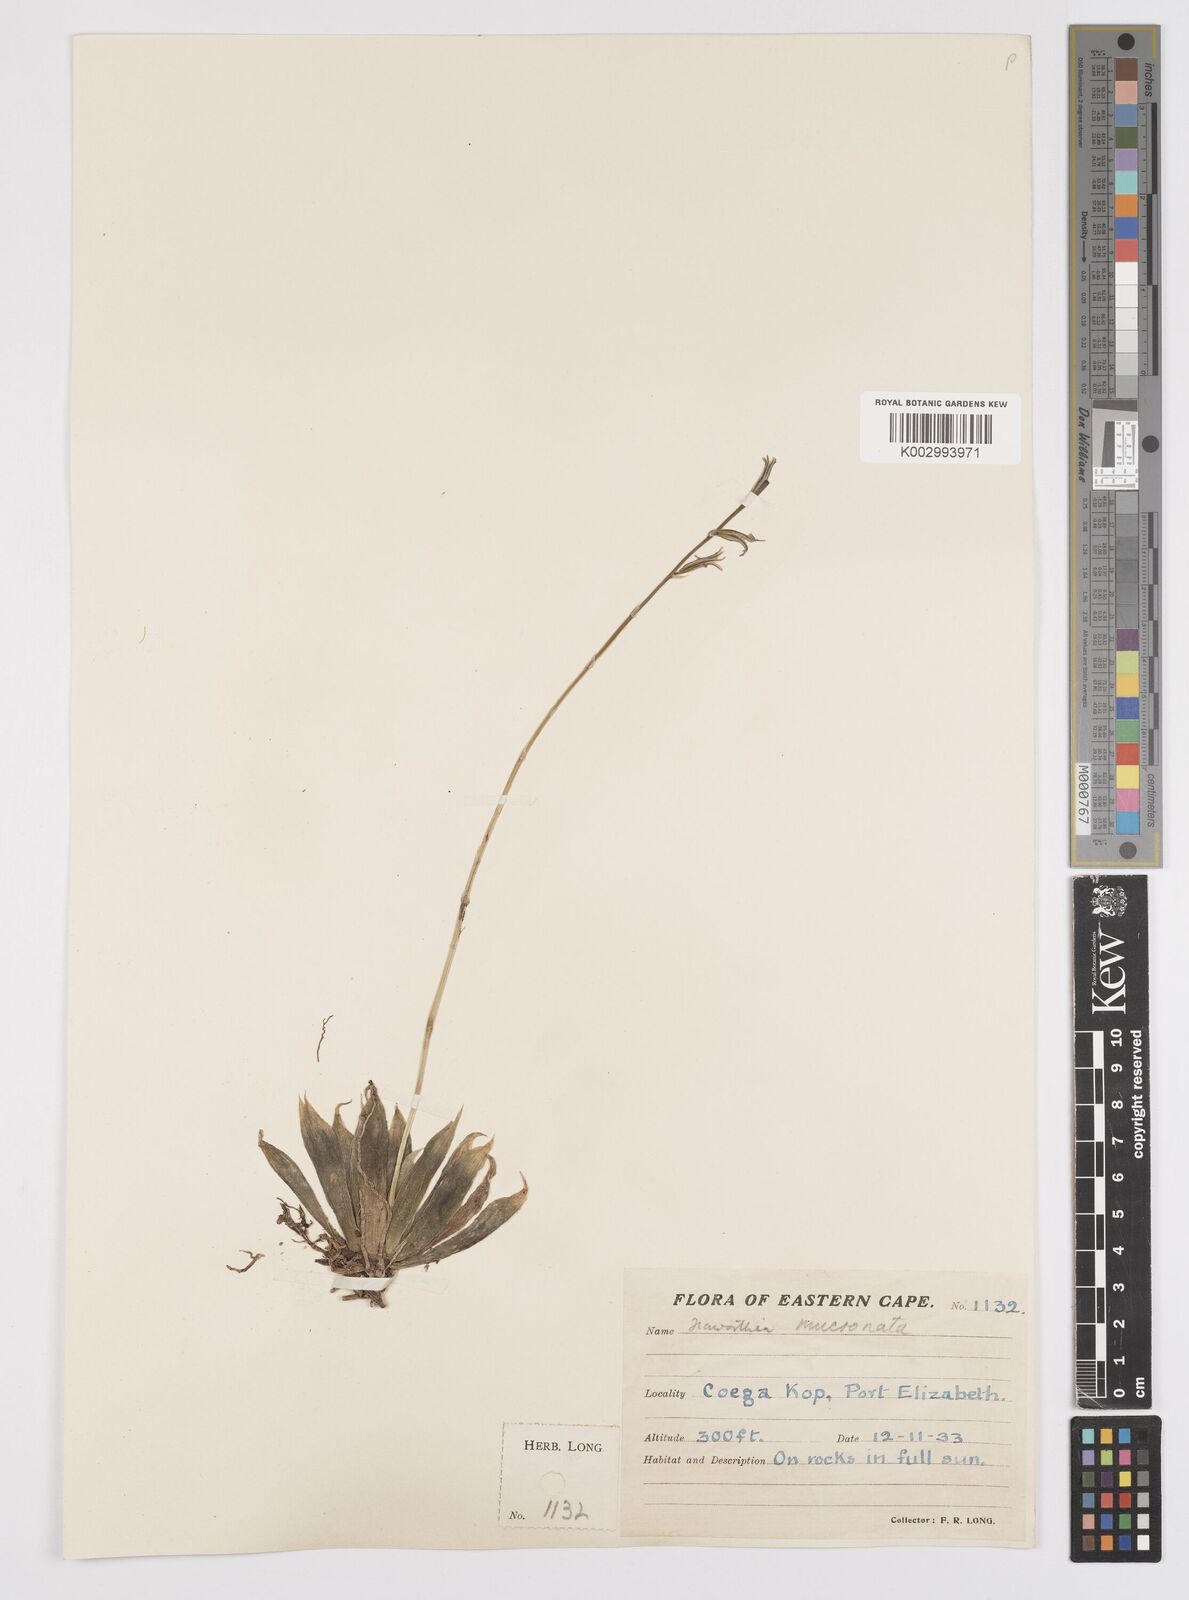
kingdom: Plantae
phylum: Tracheophyta
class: Liliopsida
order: Asparagales
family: Asphodelaceae
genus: Haworthia
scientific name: Haworthia mucronata
